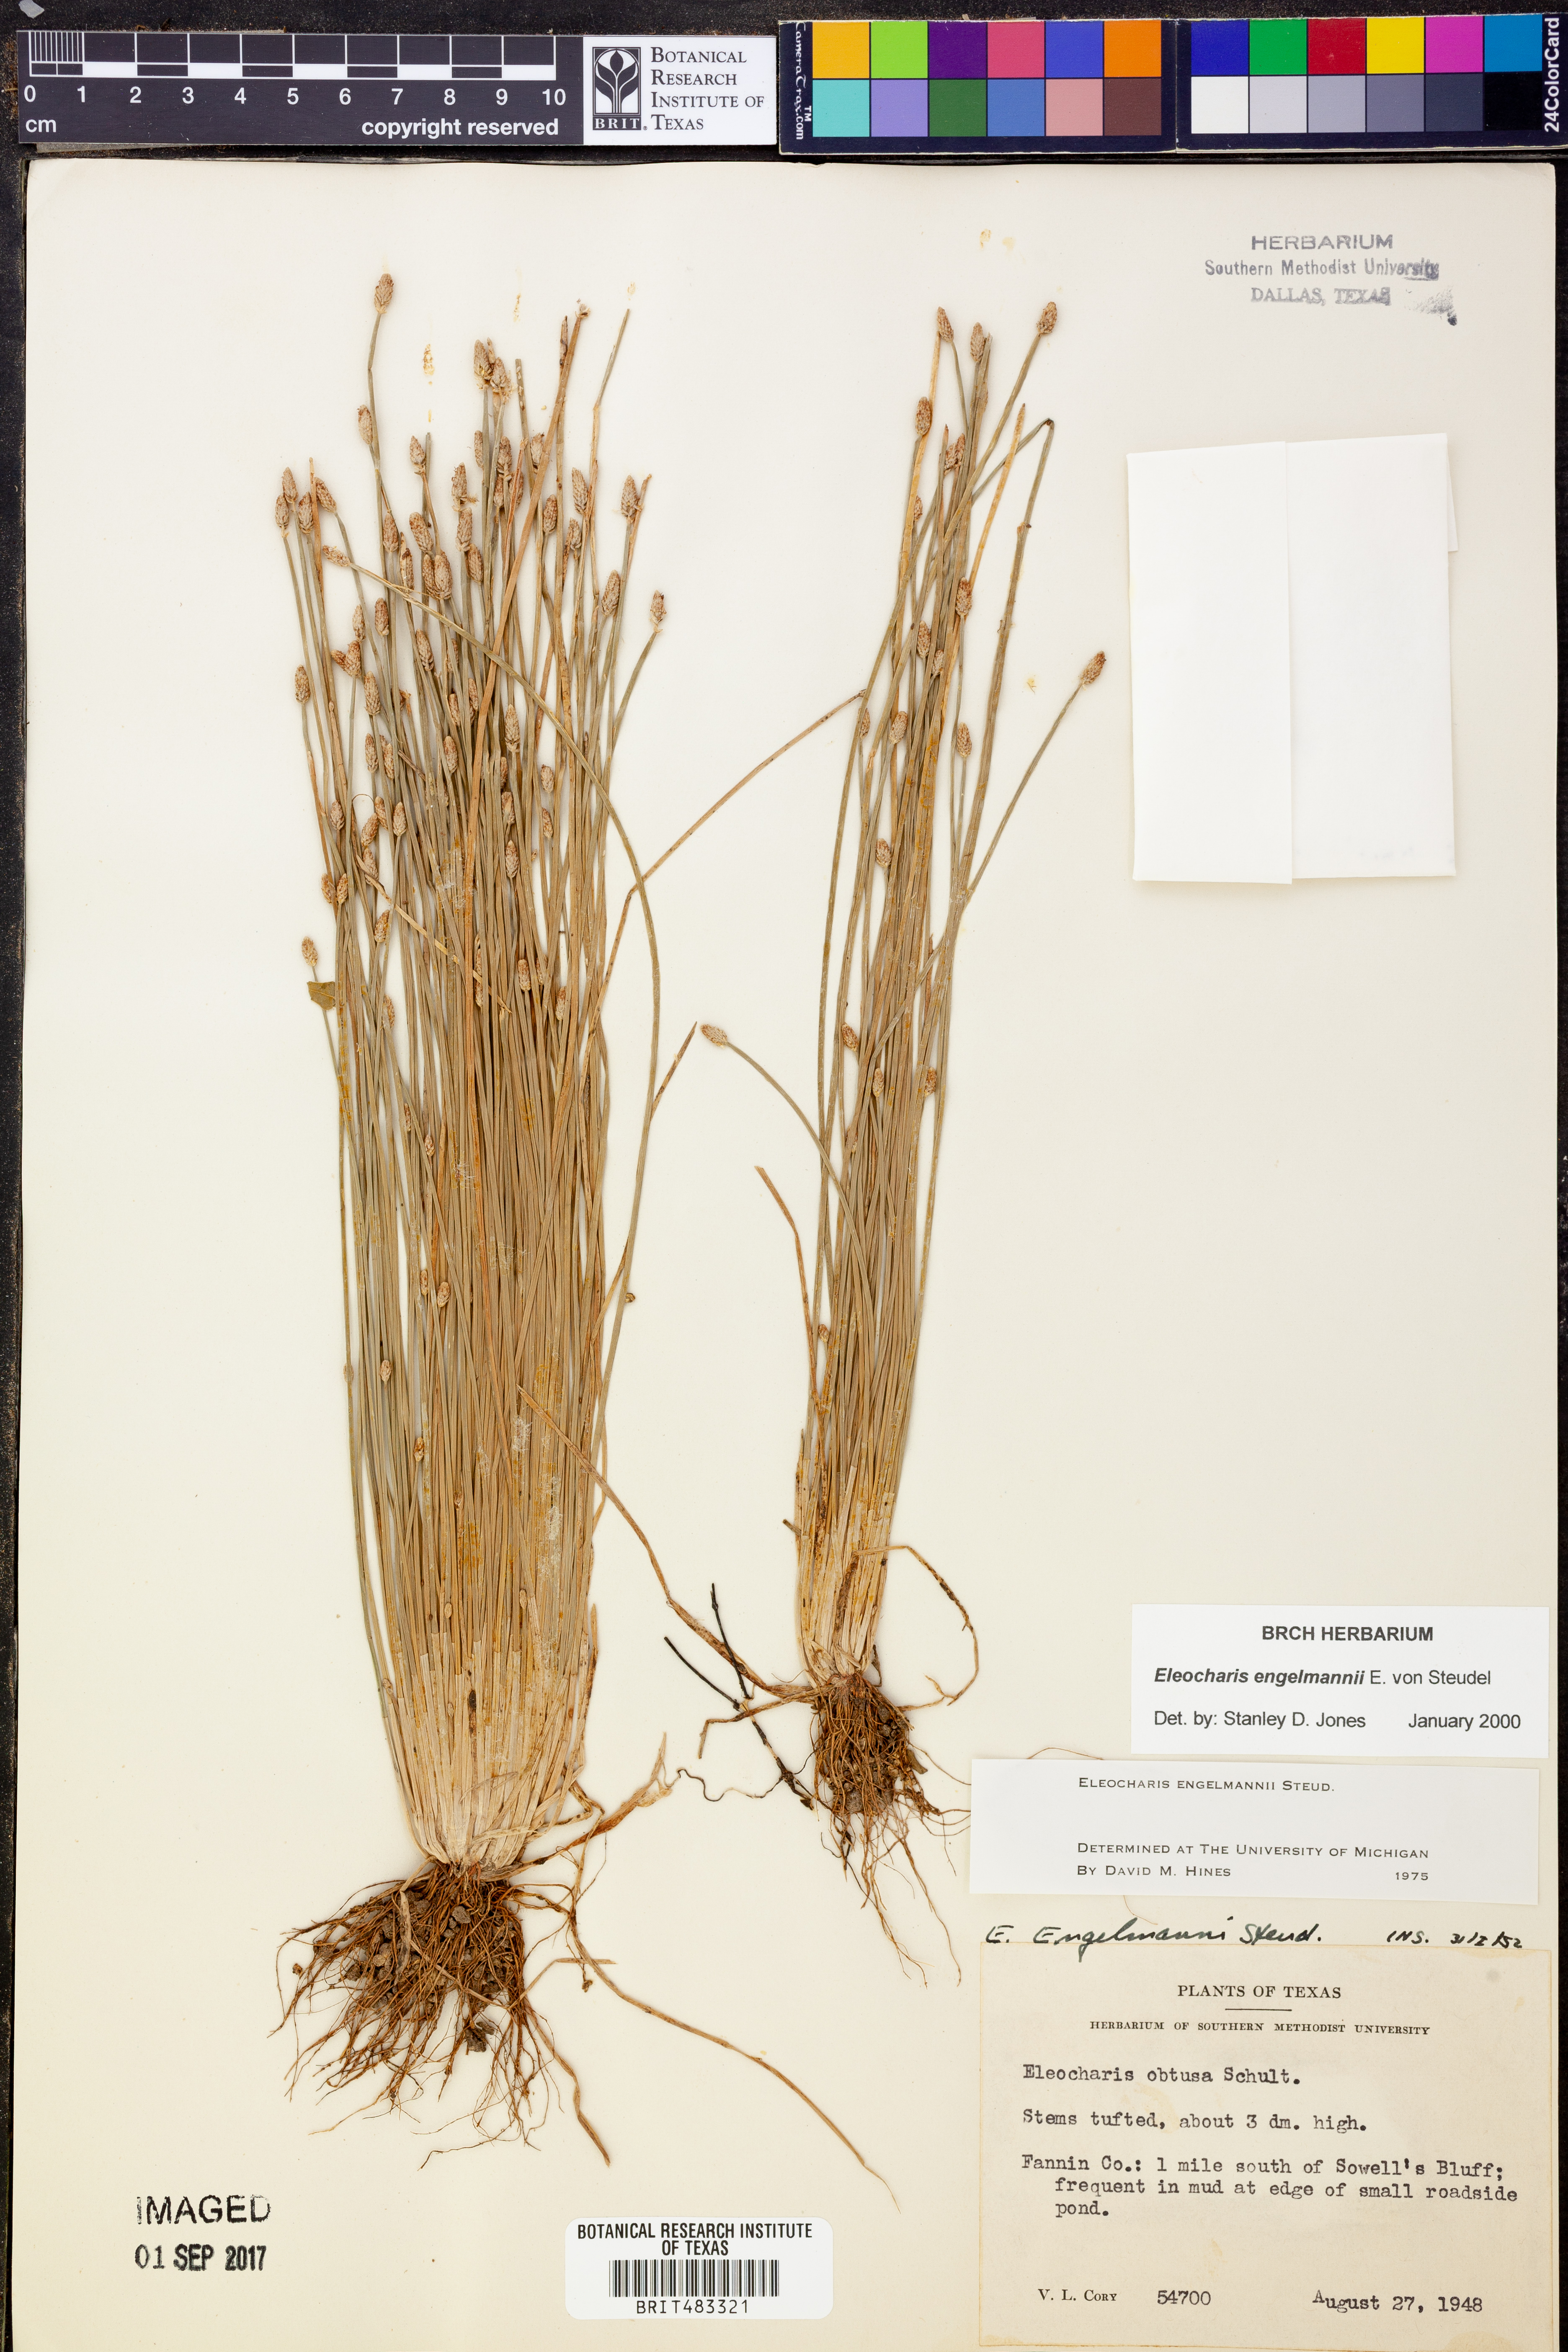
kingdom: Plantae
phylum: Tracheophyta
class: Liliopsida
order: Poales
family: Cyperaceae
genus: Eleocharis
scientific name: Eleocharis engelmannii
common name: Engelmann's spikerush
